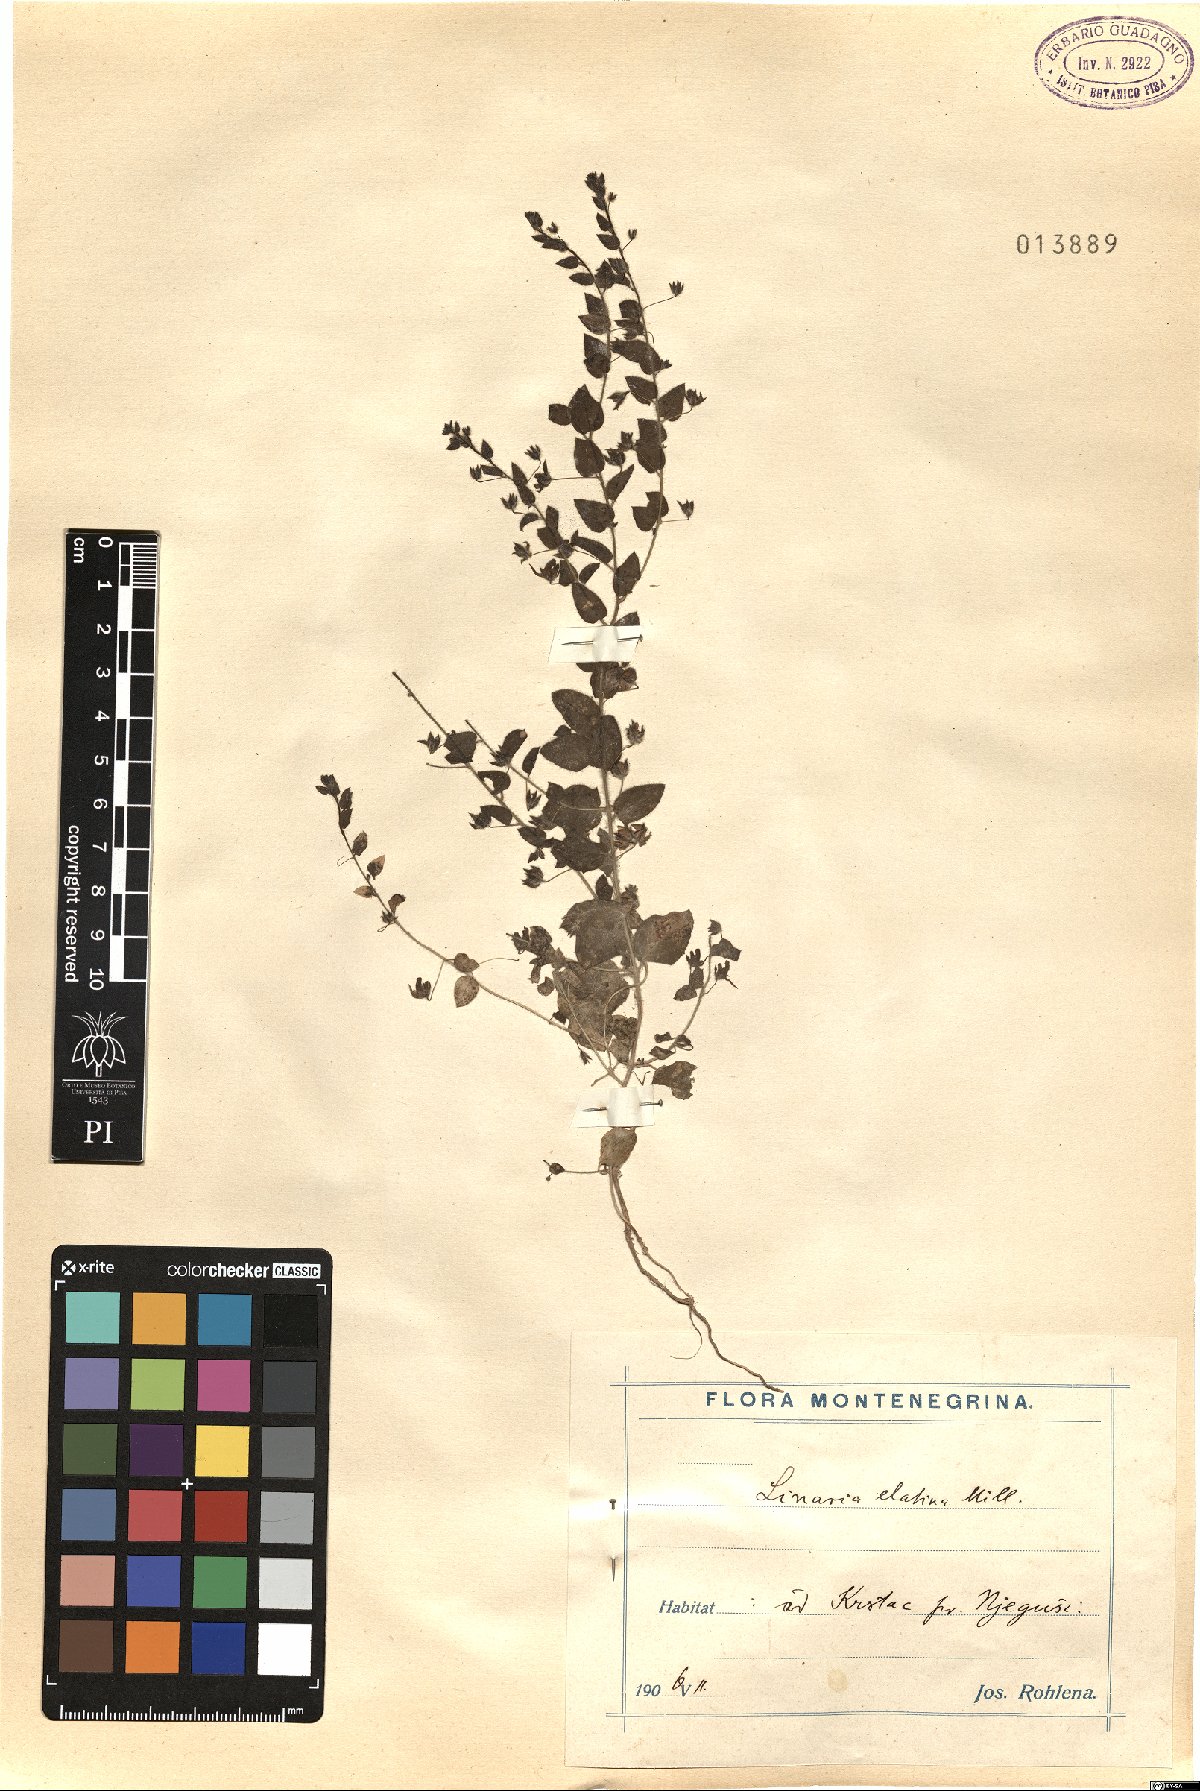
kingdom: Plantae
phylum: Tracheophyta
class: Magnoliopsida
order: Lamiales
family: Plantaginaceae
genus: Kickxia
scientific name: Kickxia elatine
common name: Sharp-leaved fluellen
